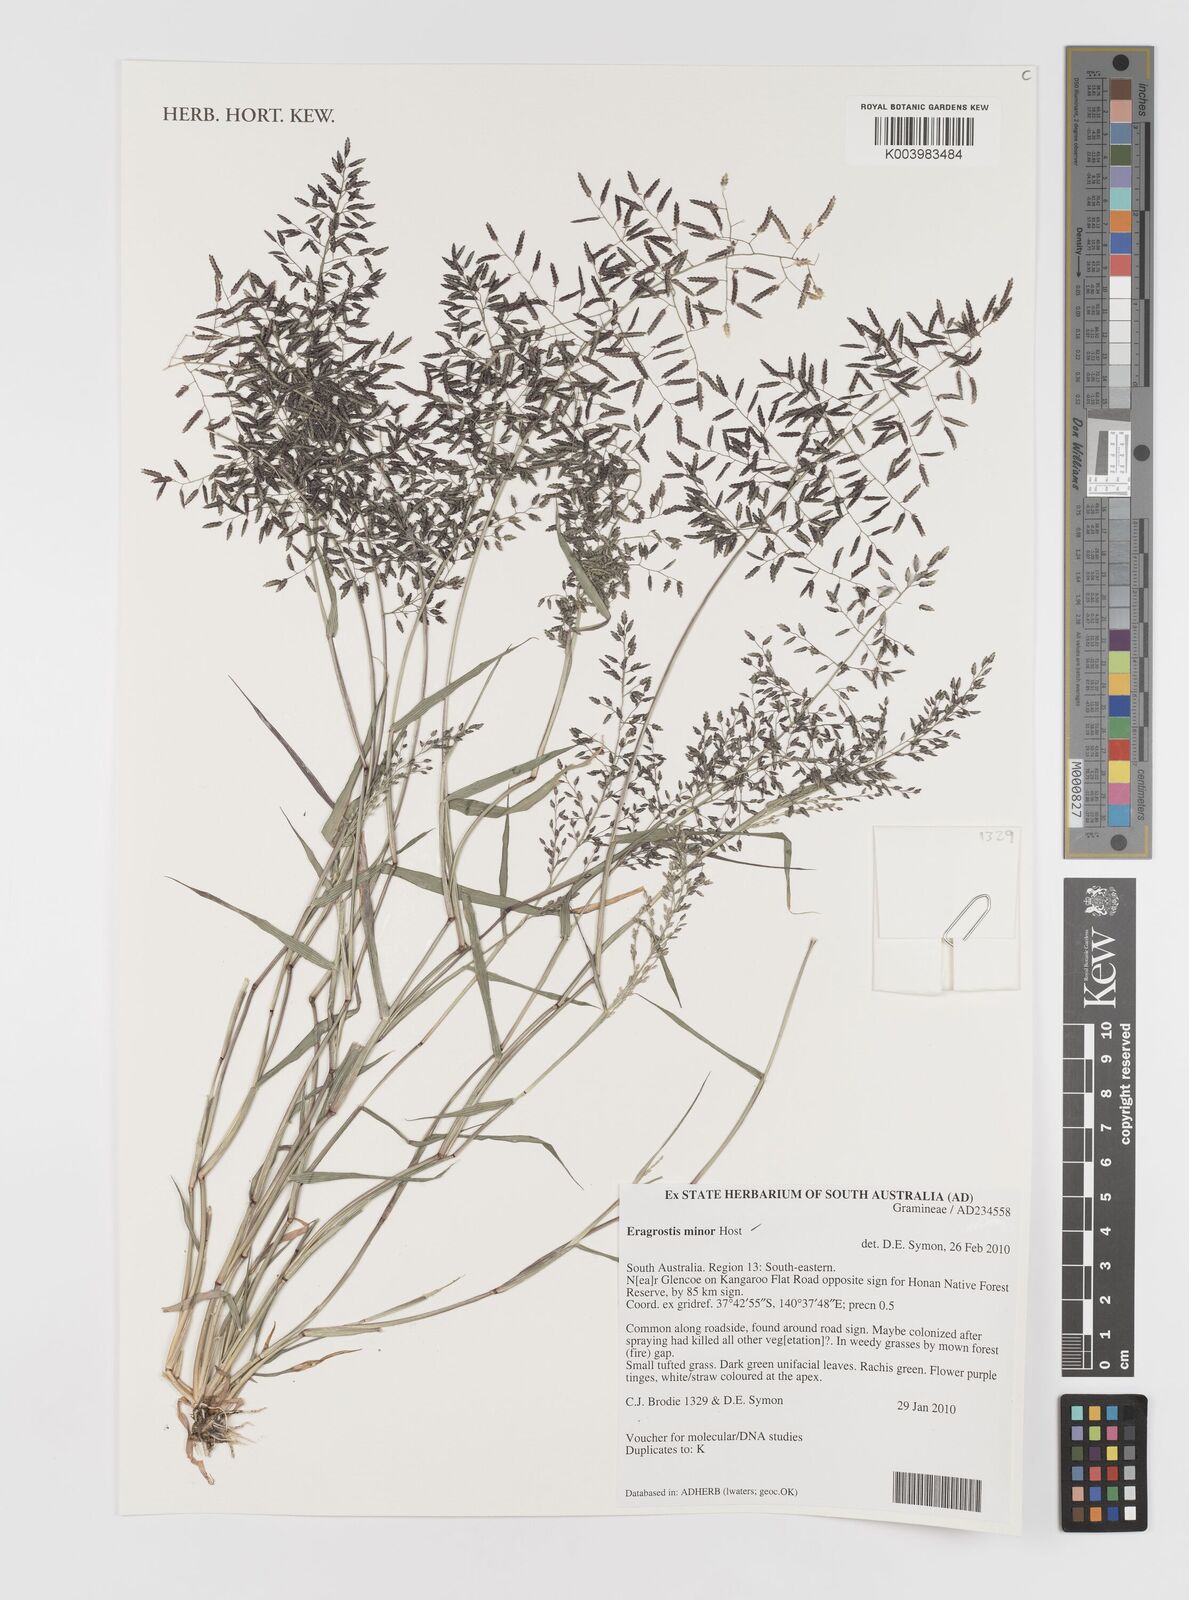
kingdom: Plantae
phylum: Tracheophyta
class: Liliopsida
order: Poales
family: Poaceae
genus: Eragrostis
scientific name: Eragrostis minor
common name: Small love-grass
